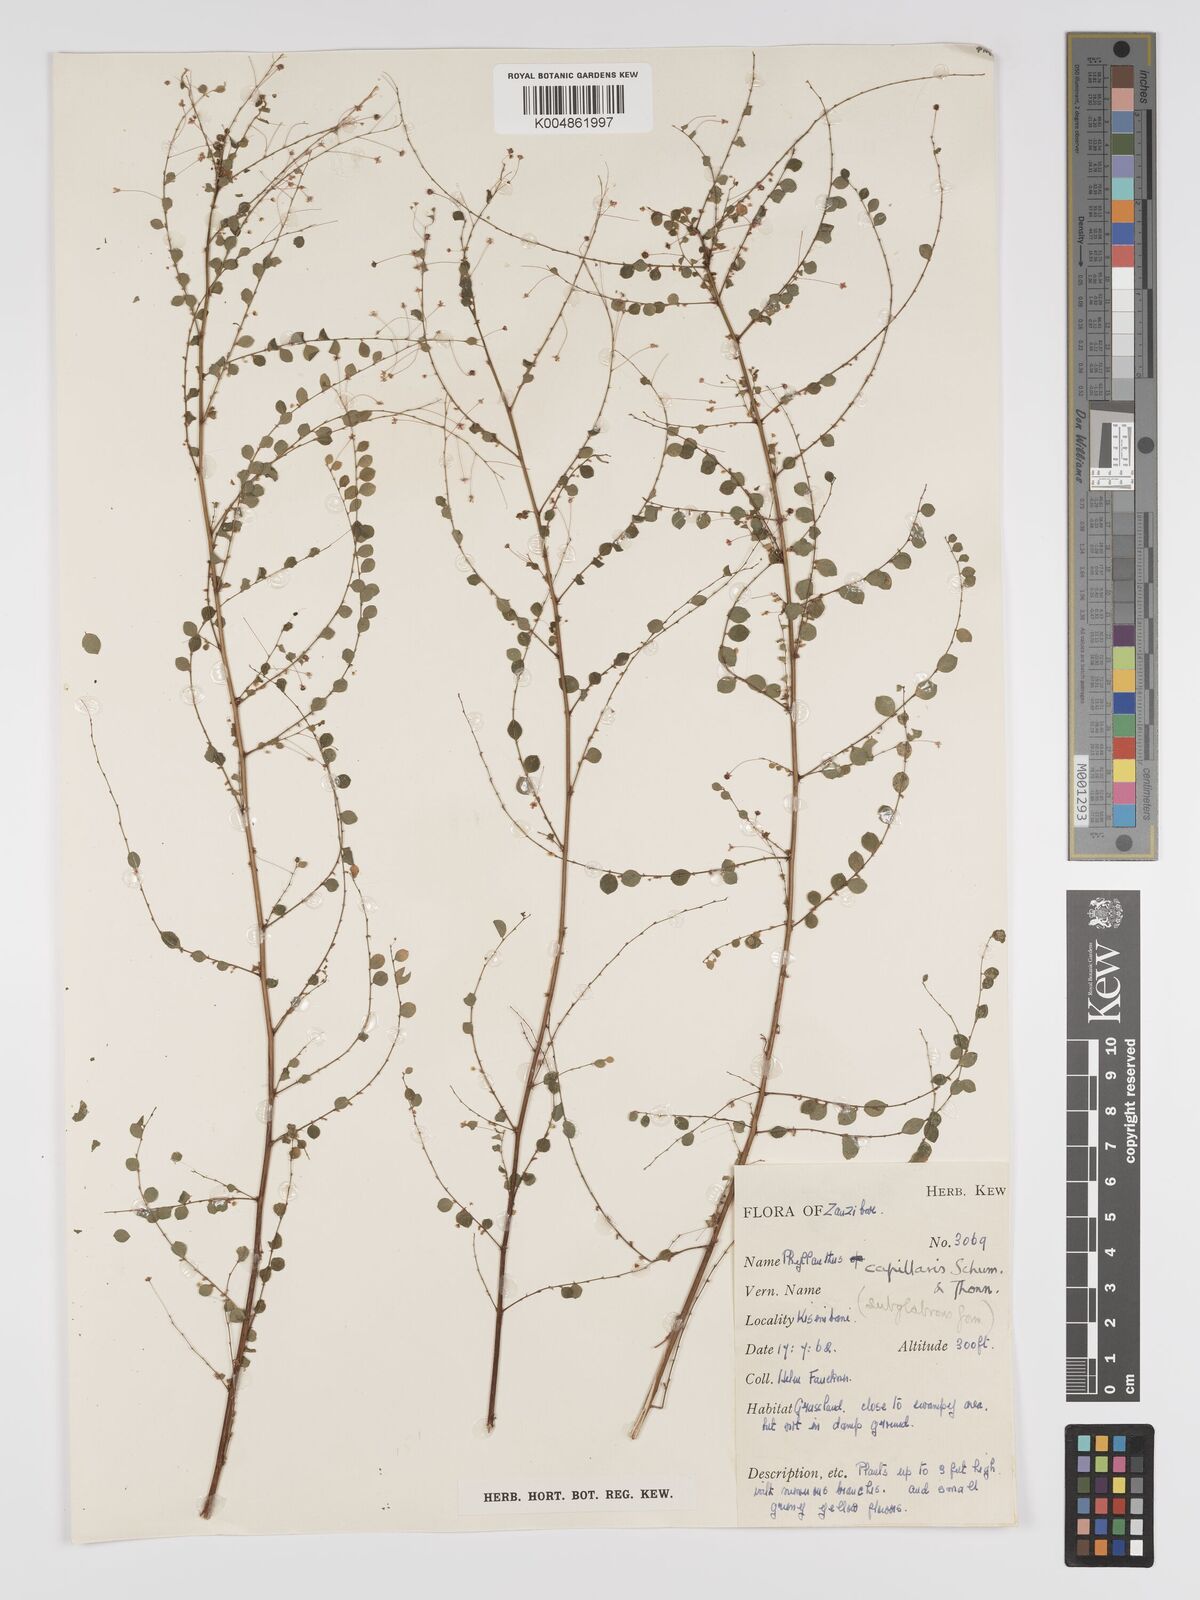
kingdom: Plantae
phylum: Tracheophyta
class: Magnoliopsida
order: Malpighiales
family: Phyllanthaceae
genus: Phyllanthus
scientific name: Phyllanthus nummulariifolius
